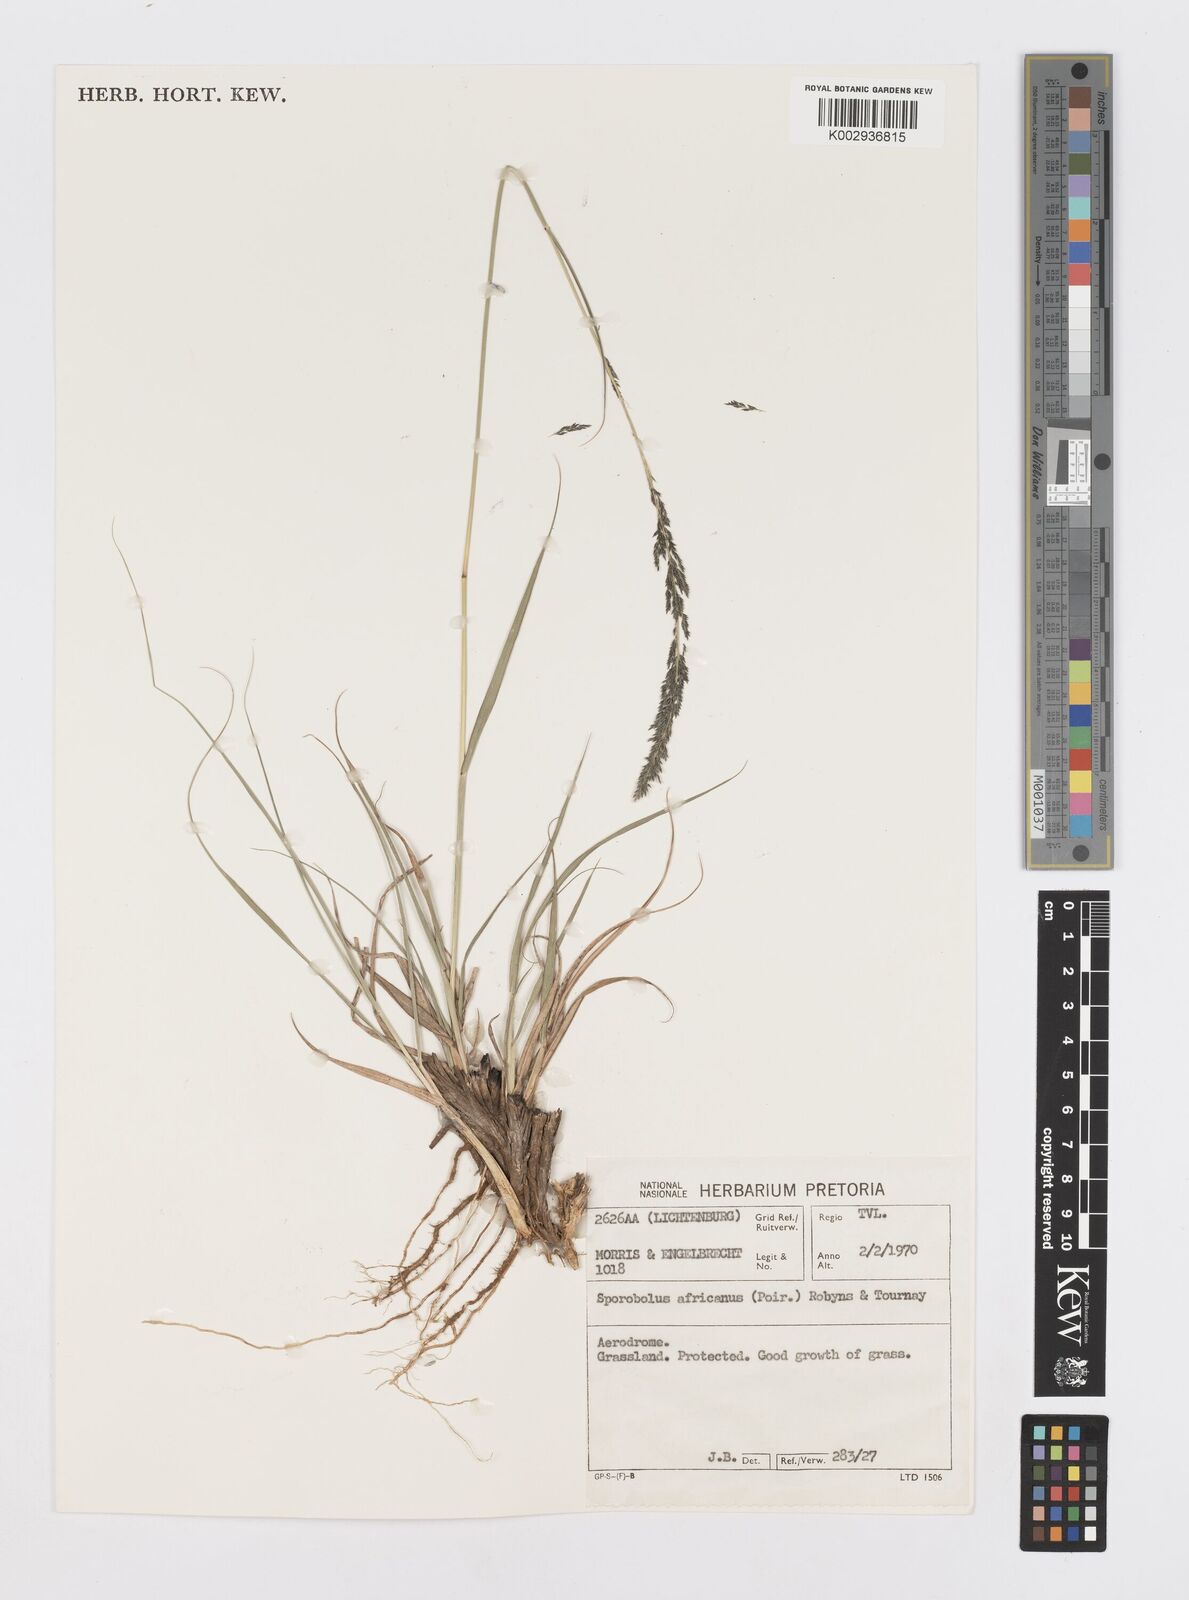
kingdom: Plantae
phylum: Tracheophyta
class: Liliopsida
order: Poales
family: Poaceae
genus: Sporobolus
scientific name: Sporobolus africanus
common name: African dropseed
